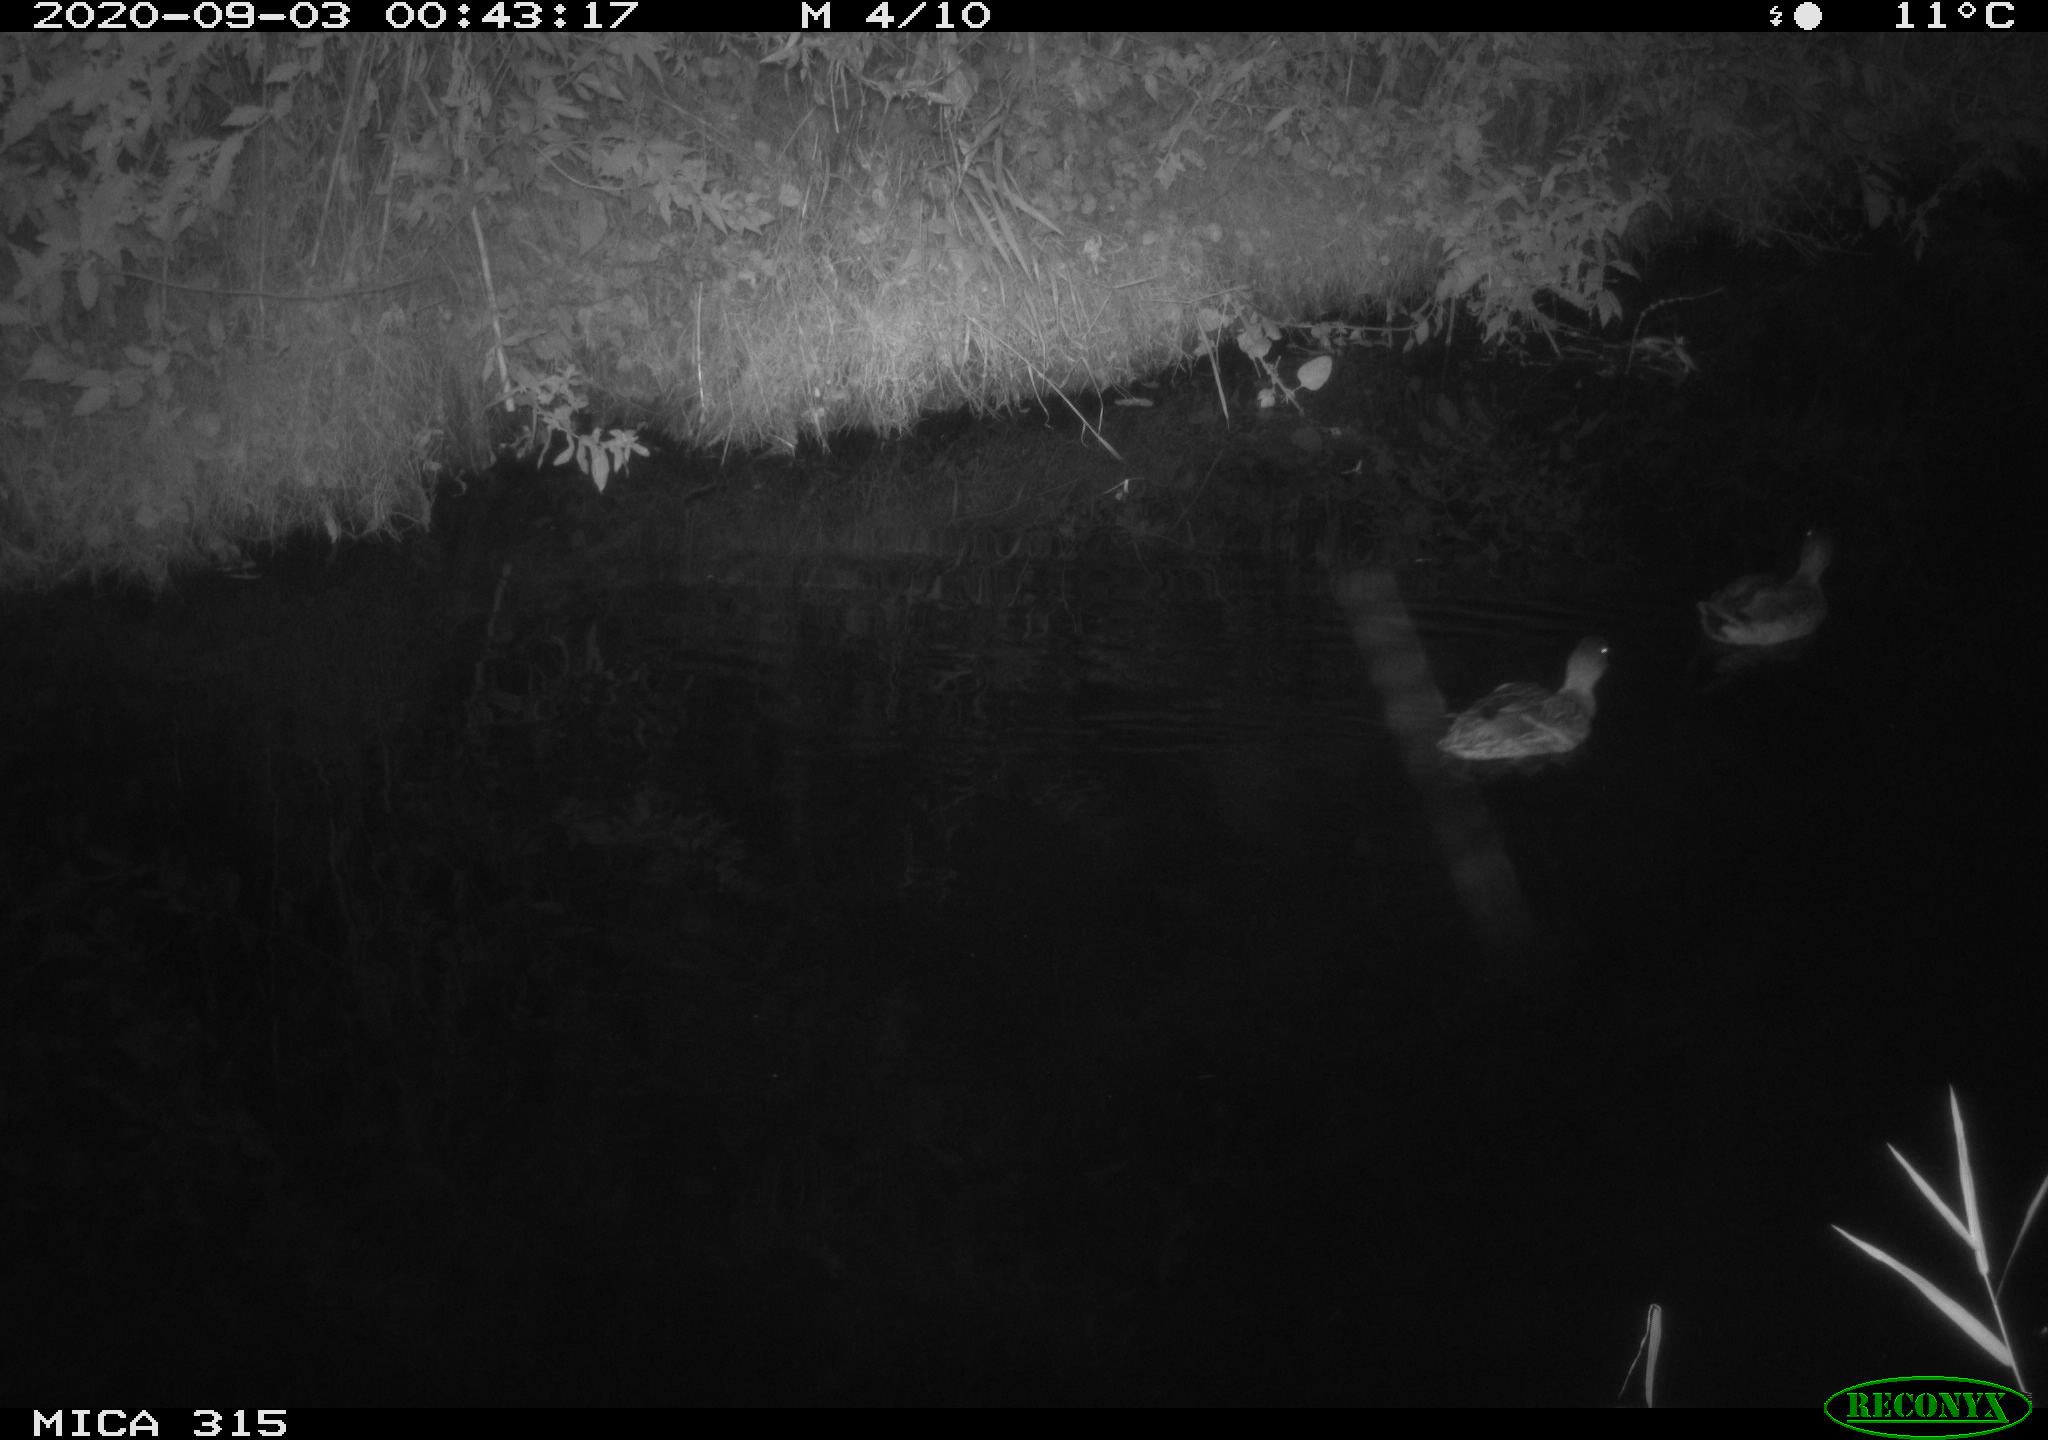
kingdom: Animalia
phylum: Chordata
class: Aves
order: Anseriformes
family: Anatidae
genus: Anas
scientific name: Anas platyrhynchos
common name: Mallard
